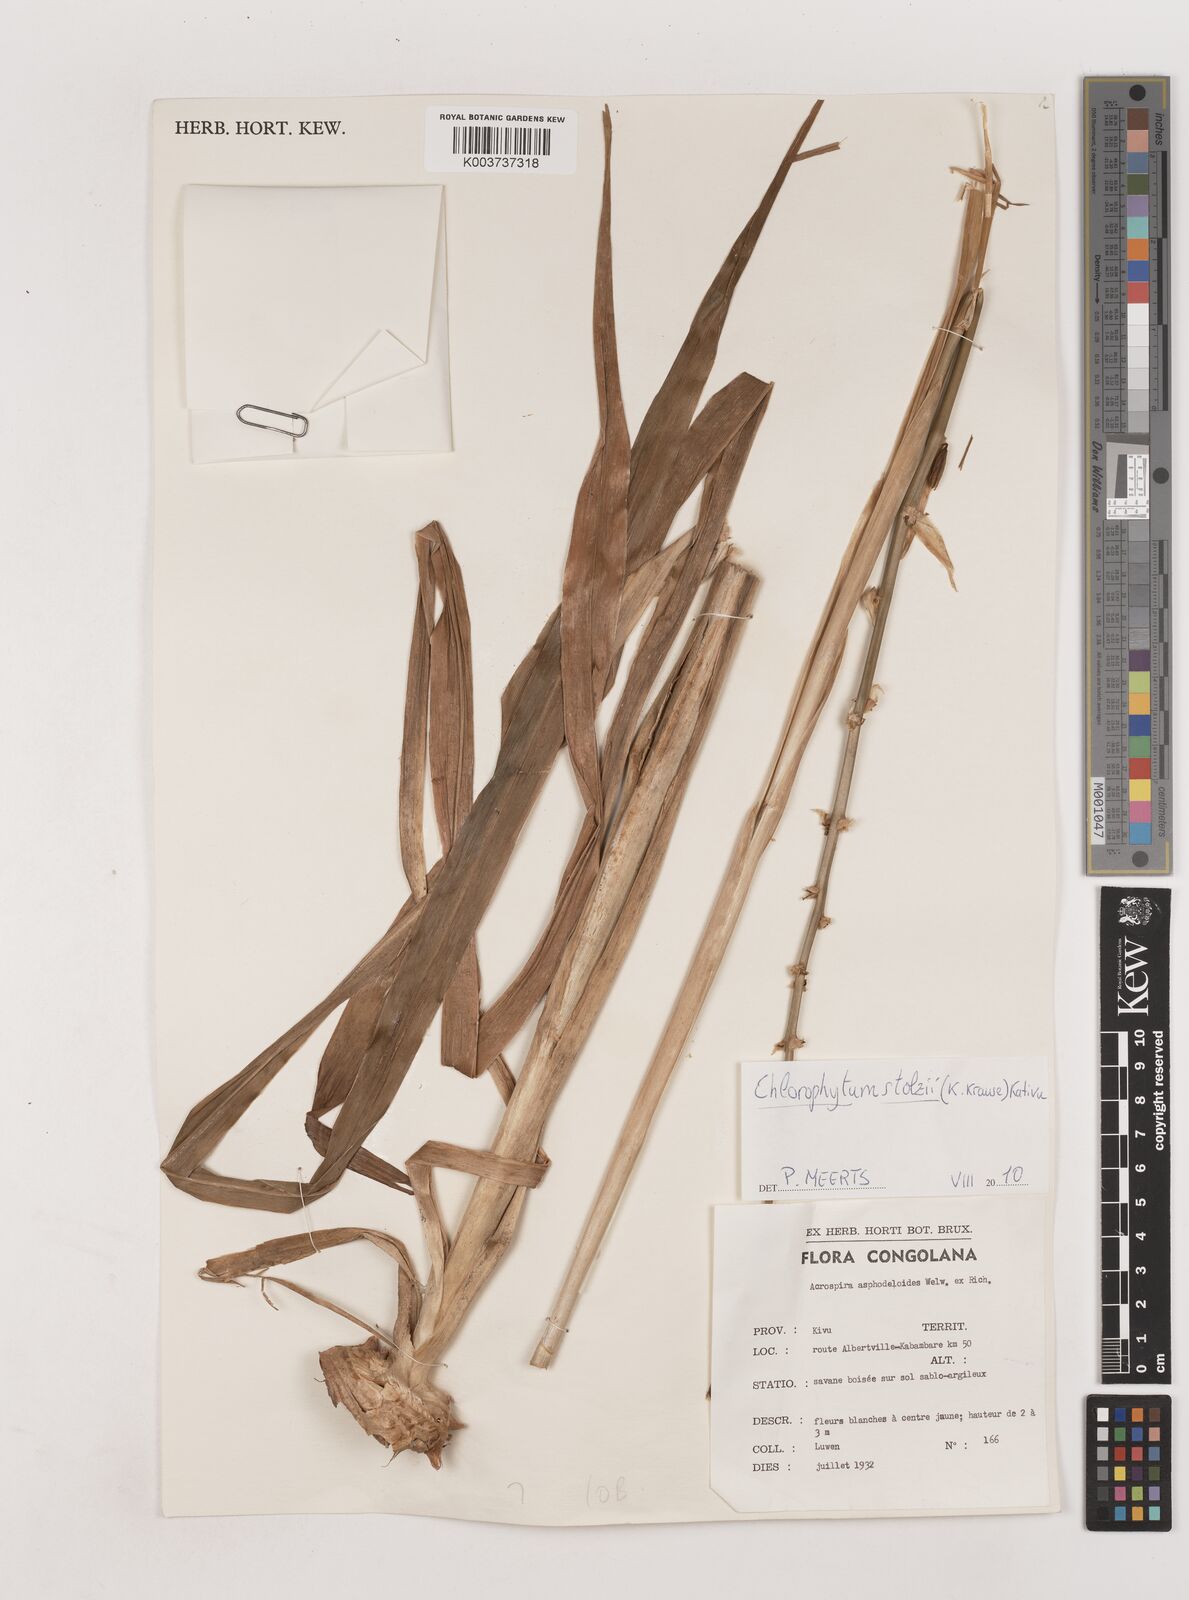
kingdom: Plantae
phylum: Tracheophyta
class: Liliopsida
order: Asparagales
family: Asparagaceae
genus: Chlorophytum
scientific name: Chlorophytum stolzii
